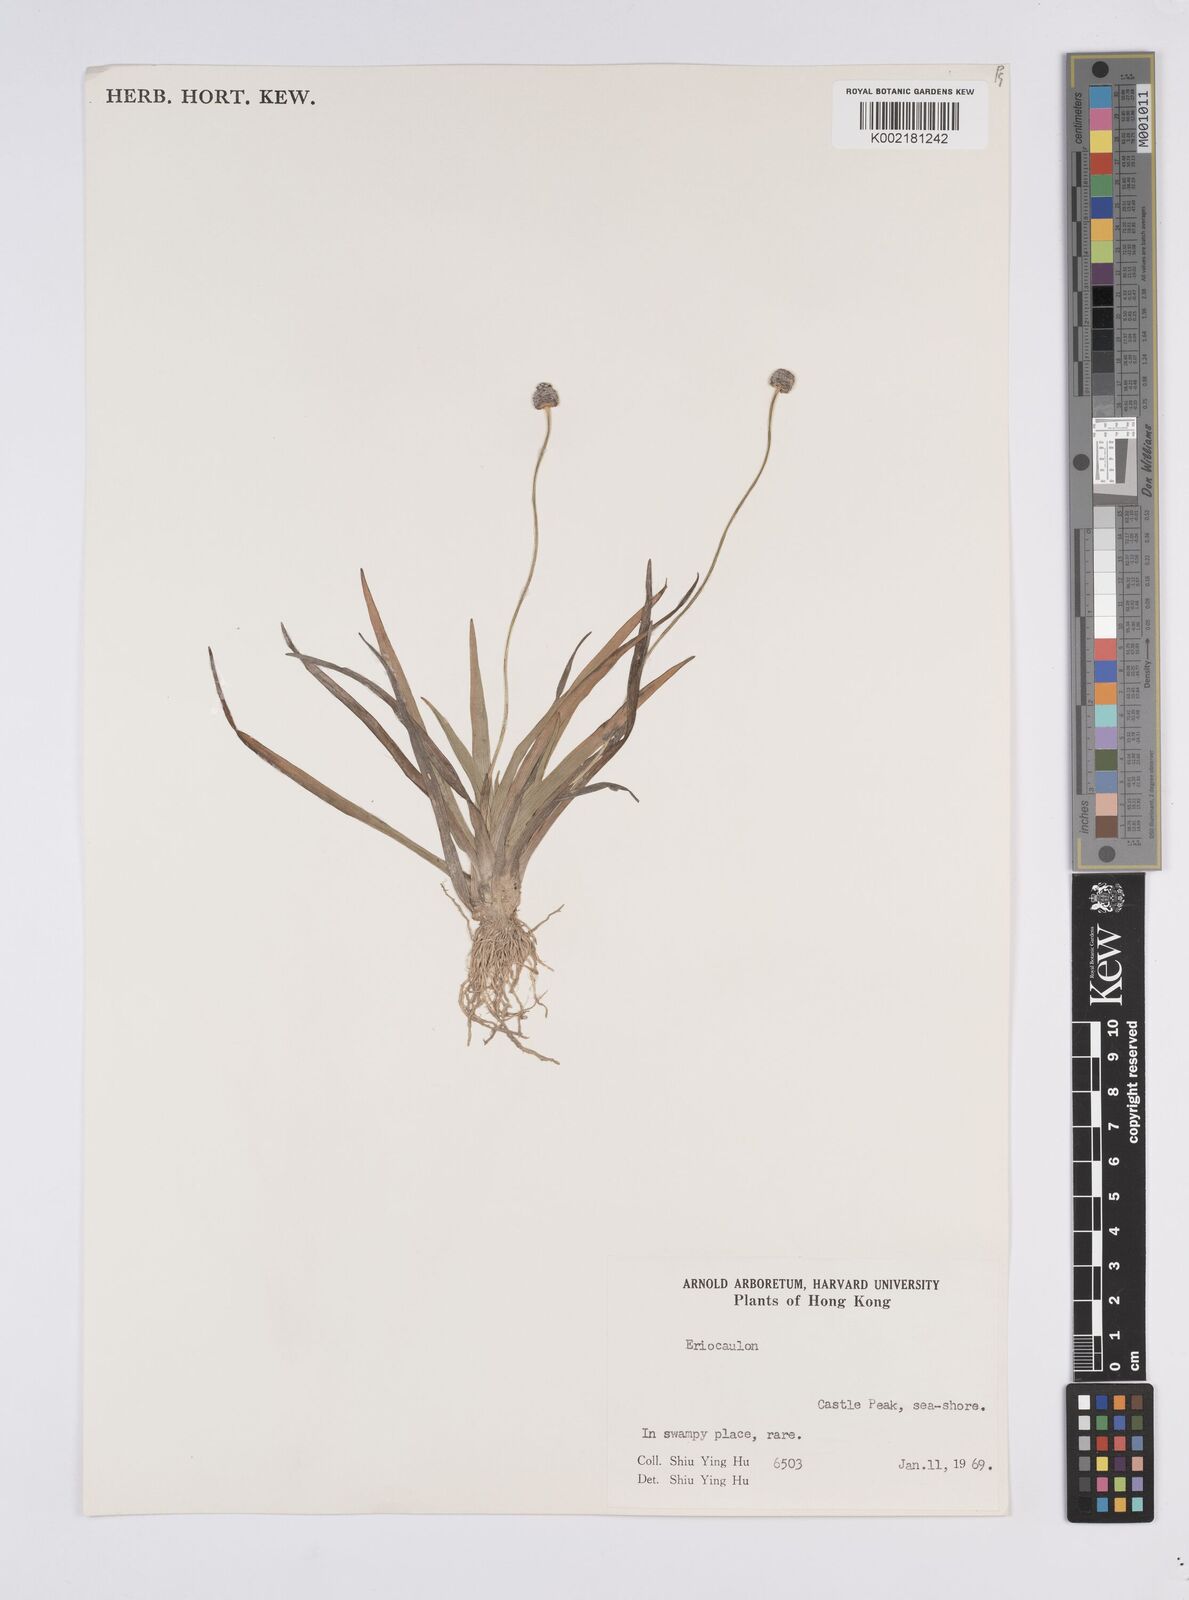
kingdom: Plantae
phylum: Tracheophyta
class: Liliopsida
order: Poales
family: Eriocaulaceae
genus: Eriocaulon
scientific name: Eriocaulon
